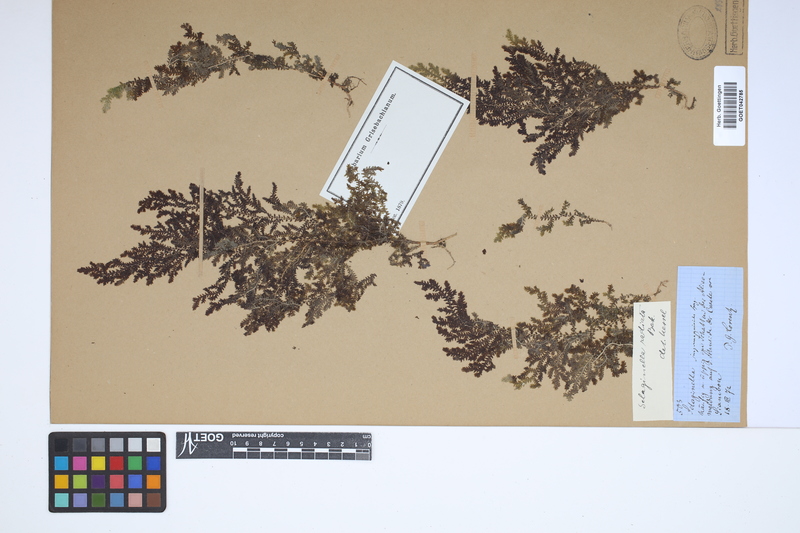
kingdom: Plantae
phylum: Tracheophyta
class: Lycopodiopsida
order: Selaginellales
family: Selaginellaceae
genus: Selaginella
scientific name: Selaginella radiata
